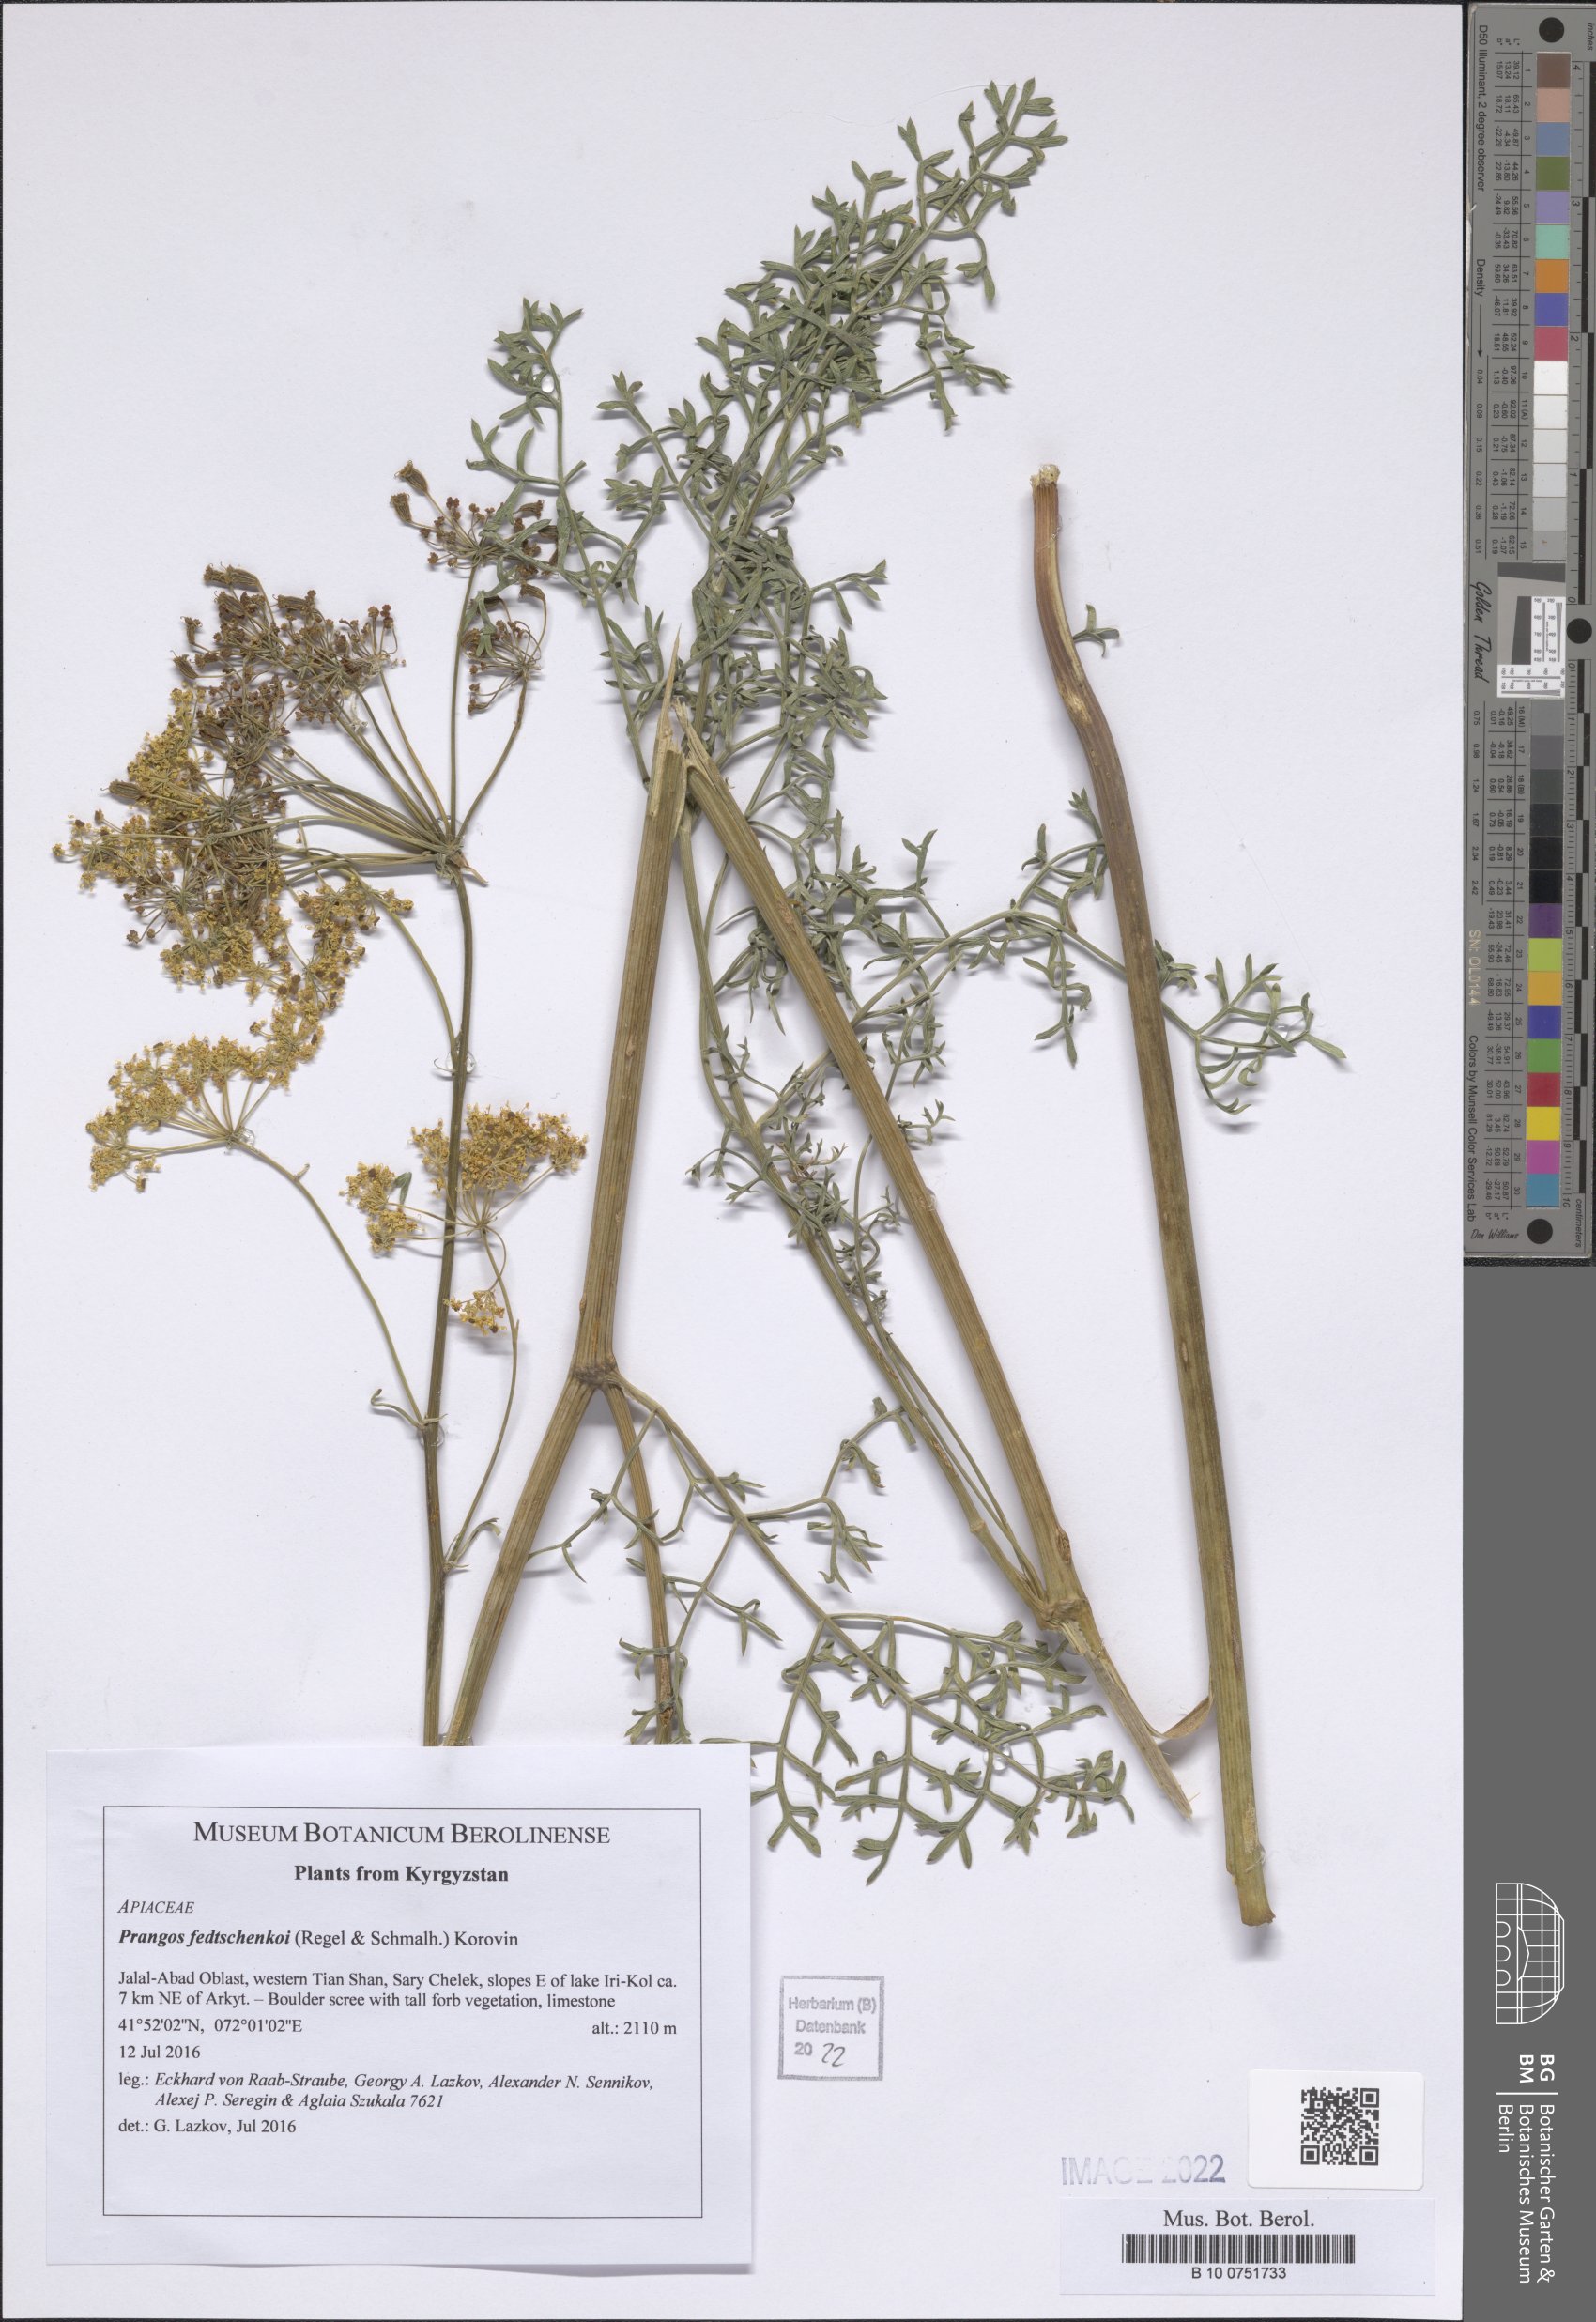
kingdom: Plantae
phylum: Tracheophyta
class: Magnoliopsida
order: Apiales
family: Apiaceae
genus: Prangos
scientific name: Prangos pabularia
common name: Yugan
